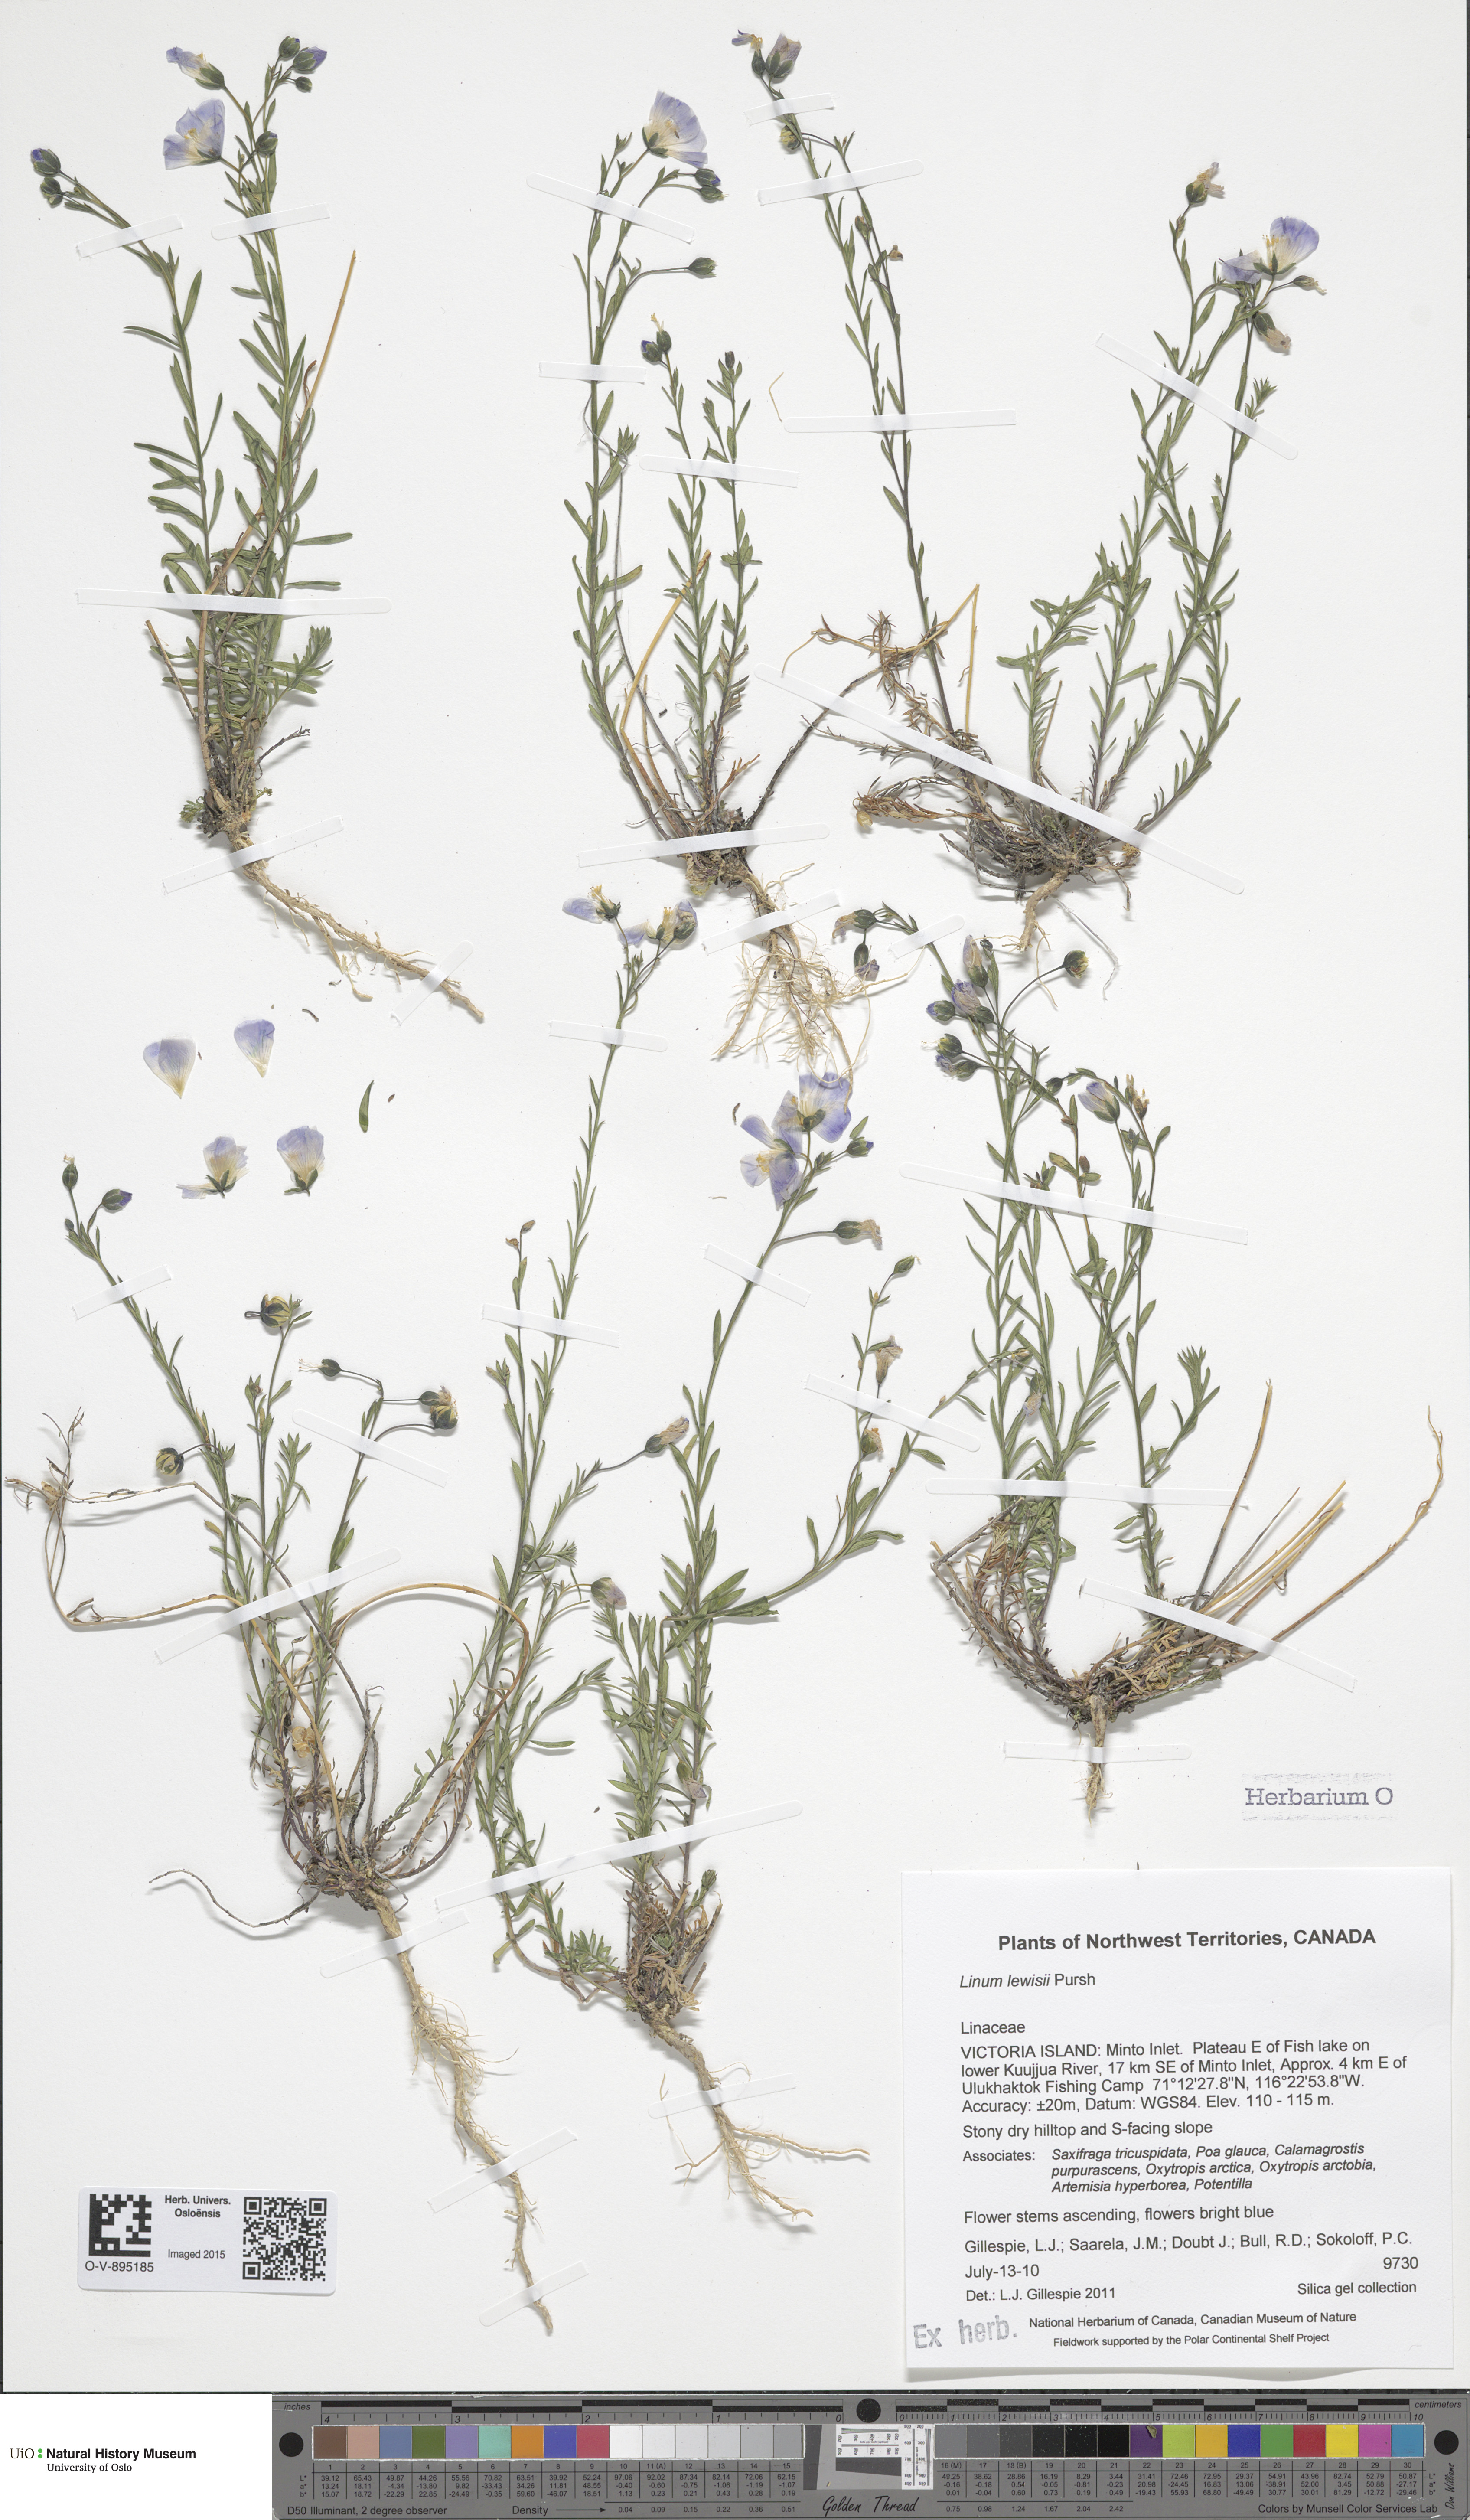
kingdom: Plantae
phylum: Tracheophyta
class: Magnoliopsida
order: Malpighiales
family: Linaceae
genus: Linum
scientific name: Linum lewisii
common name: Prairie flax
